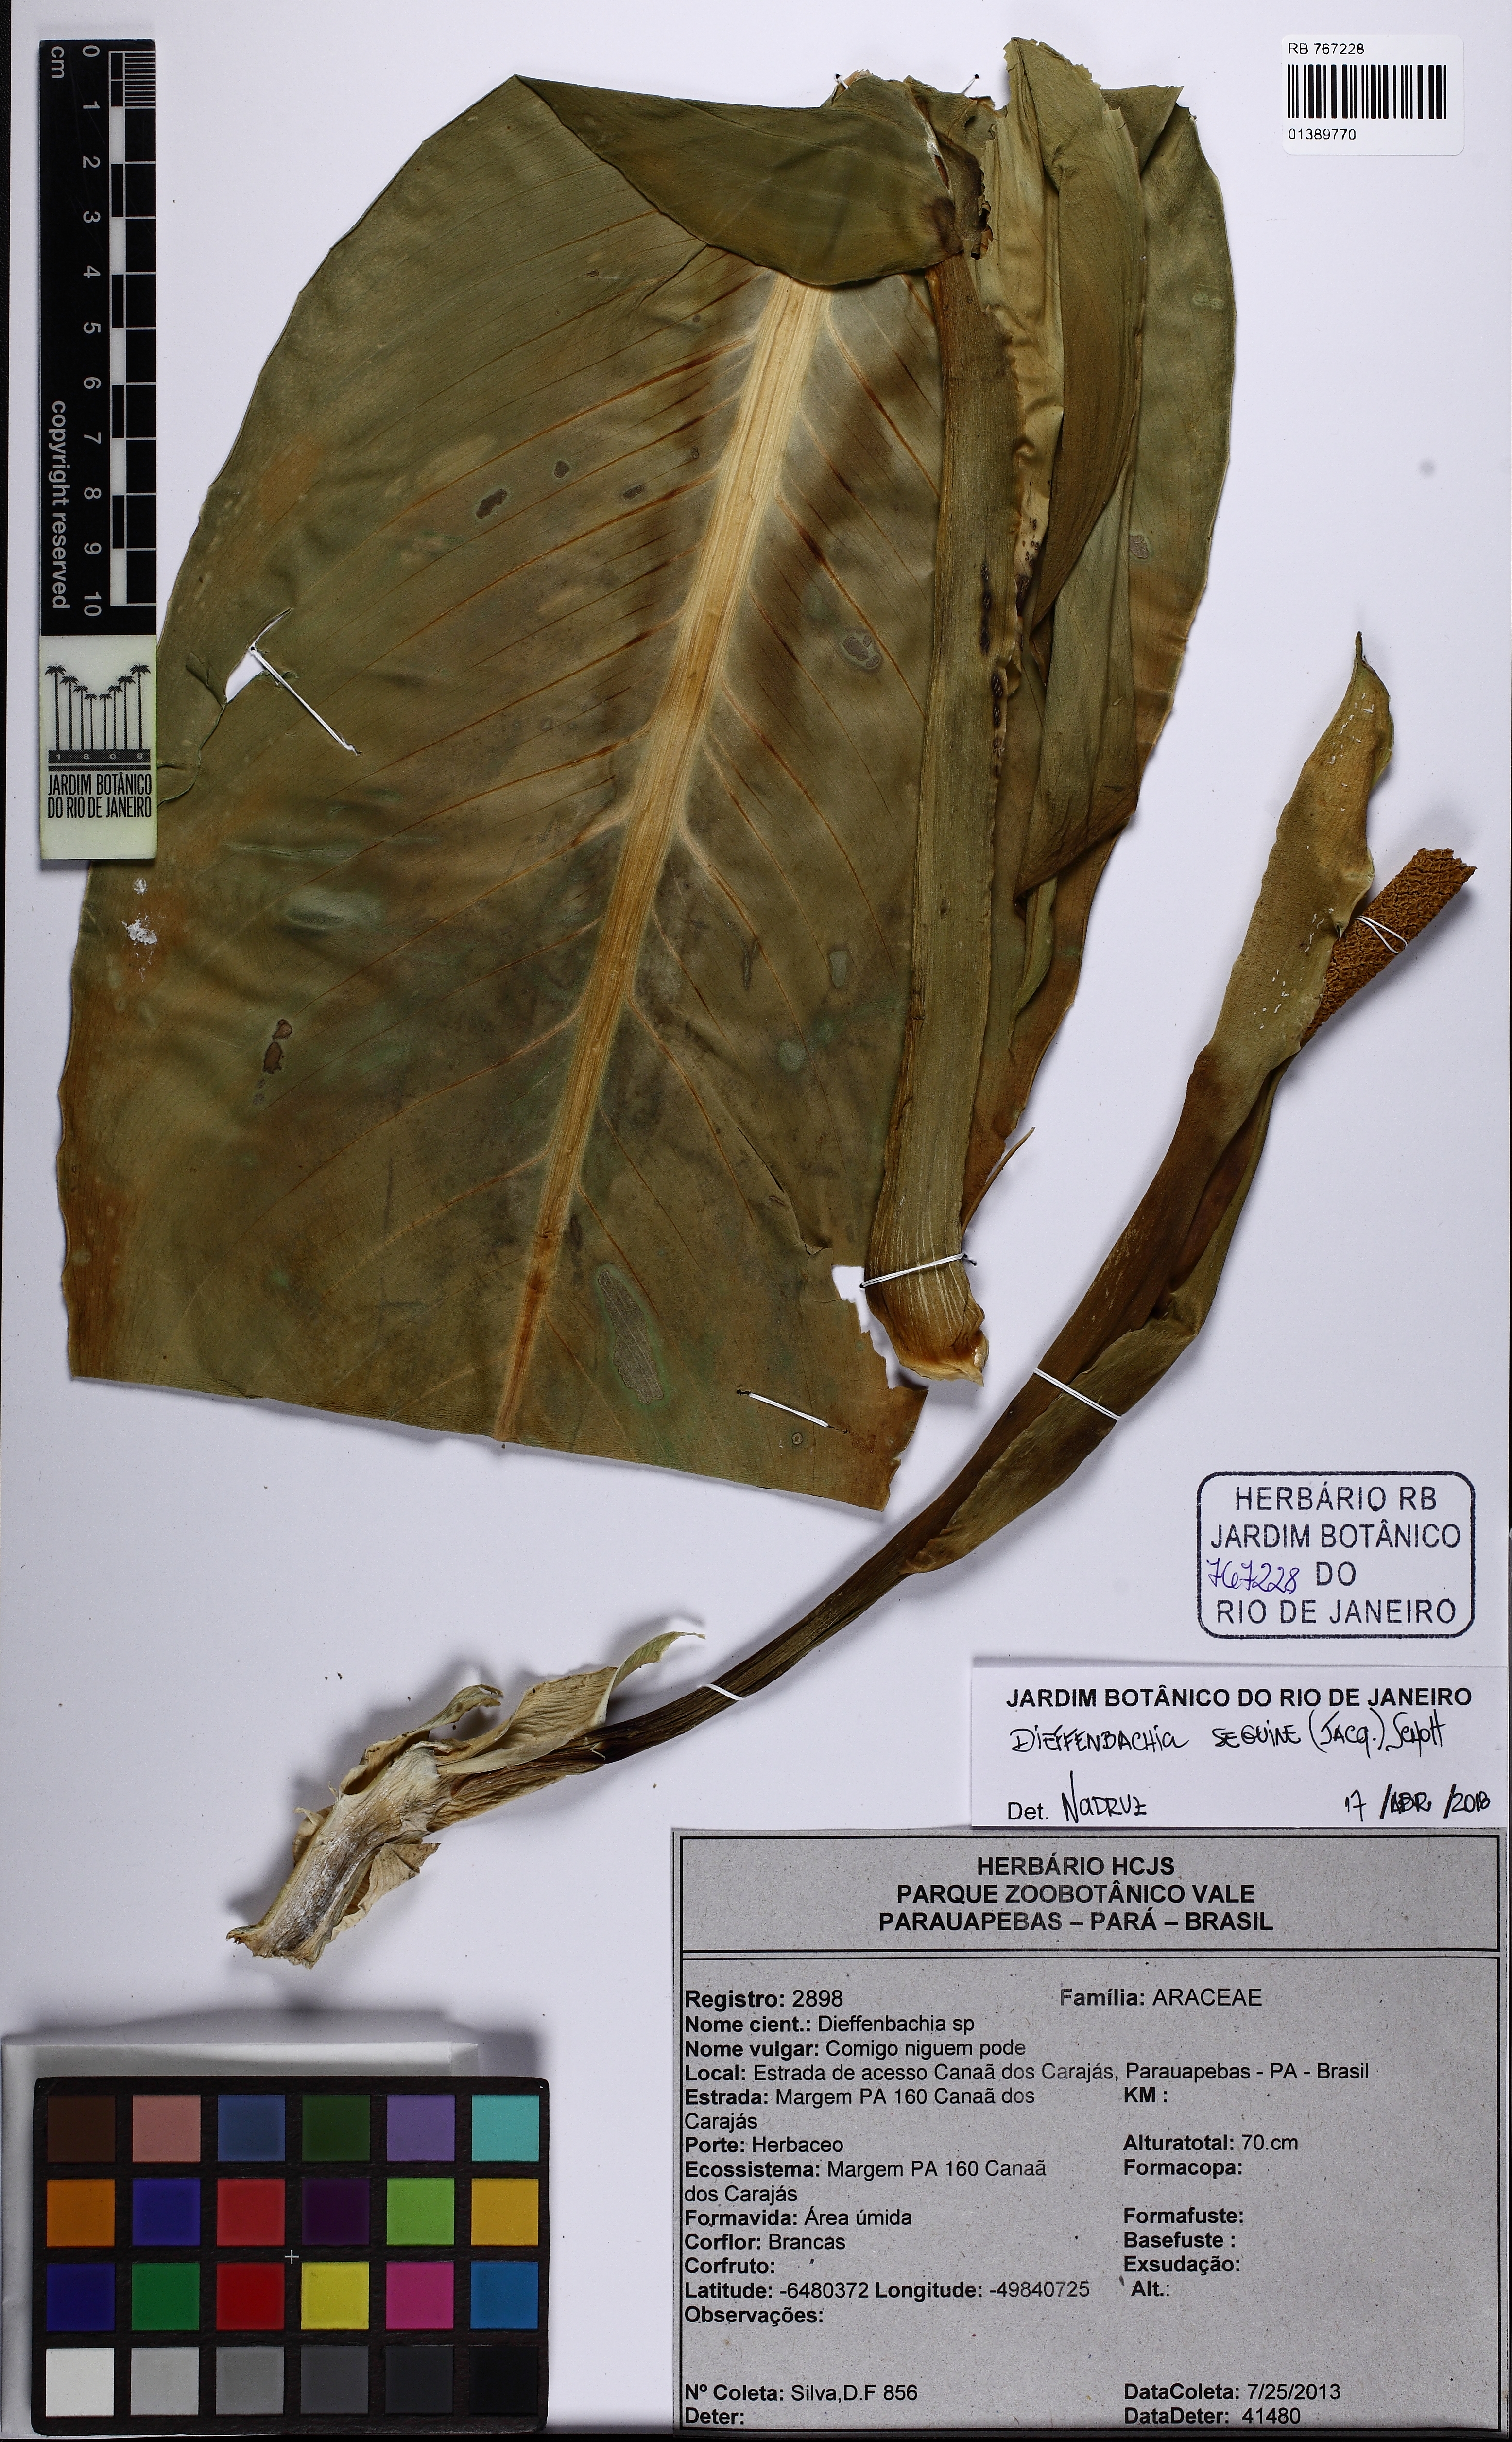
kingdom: Plantae
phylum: Tracheophyta
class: Liliopsida
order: Alismatales
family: Araceae
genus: Dieffenbachia
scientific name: Dieffenbachia seguine
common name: Dumbcane
